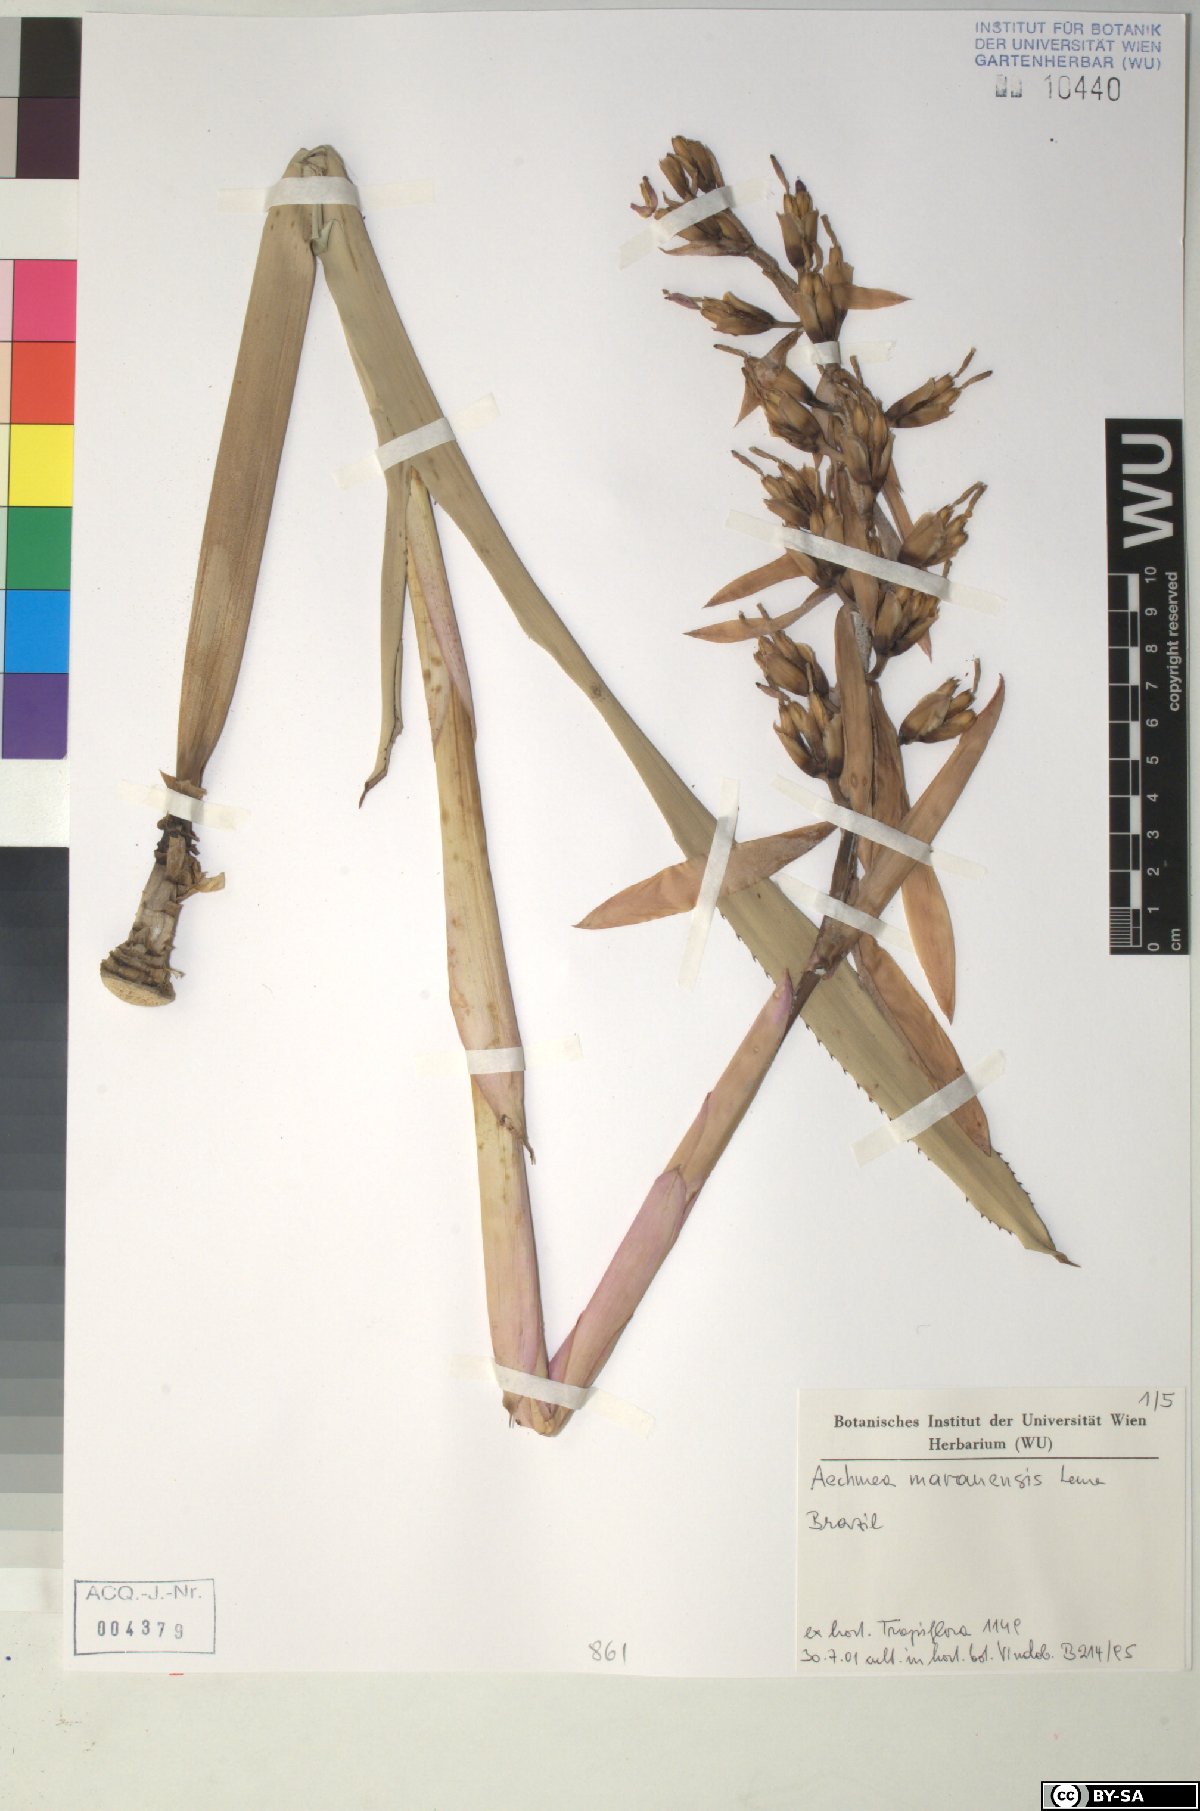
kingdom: Plantae
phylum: Tracheophyta
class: Liliopsida
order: Poales
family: Bromeliaceae
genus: Aechmea
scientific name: Aechmea marauensis
